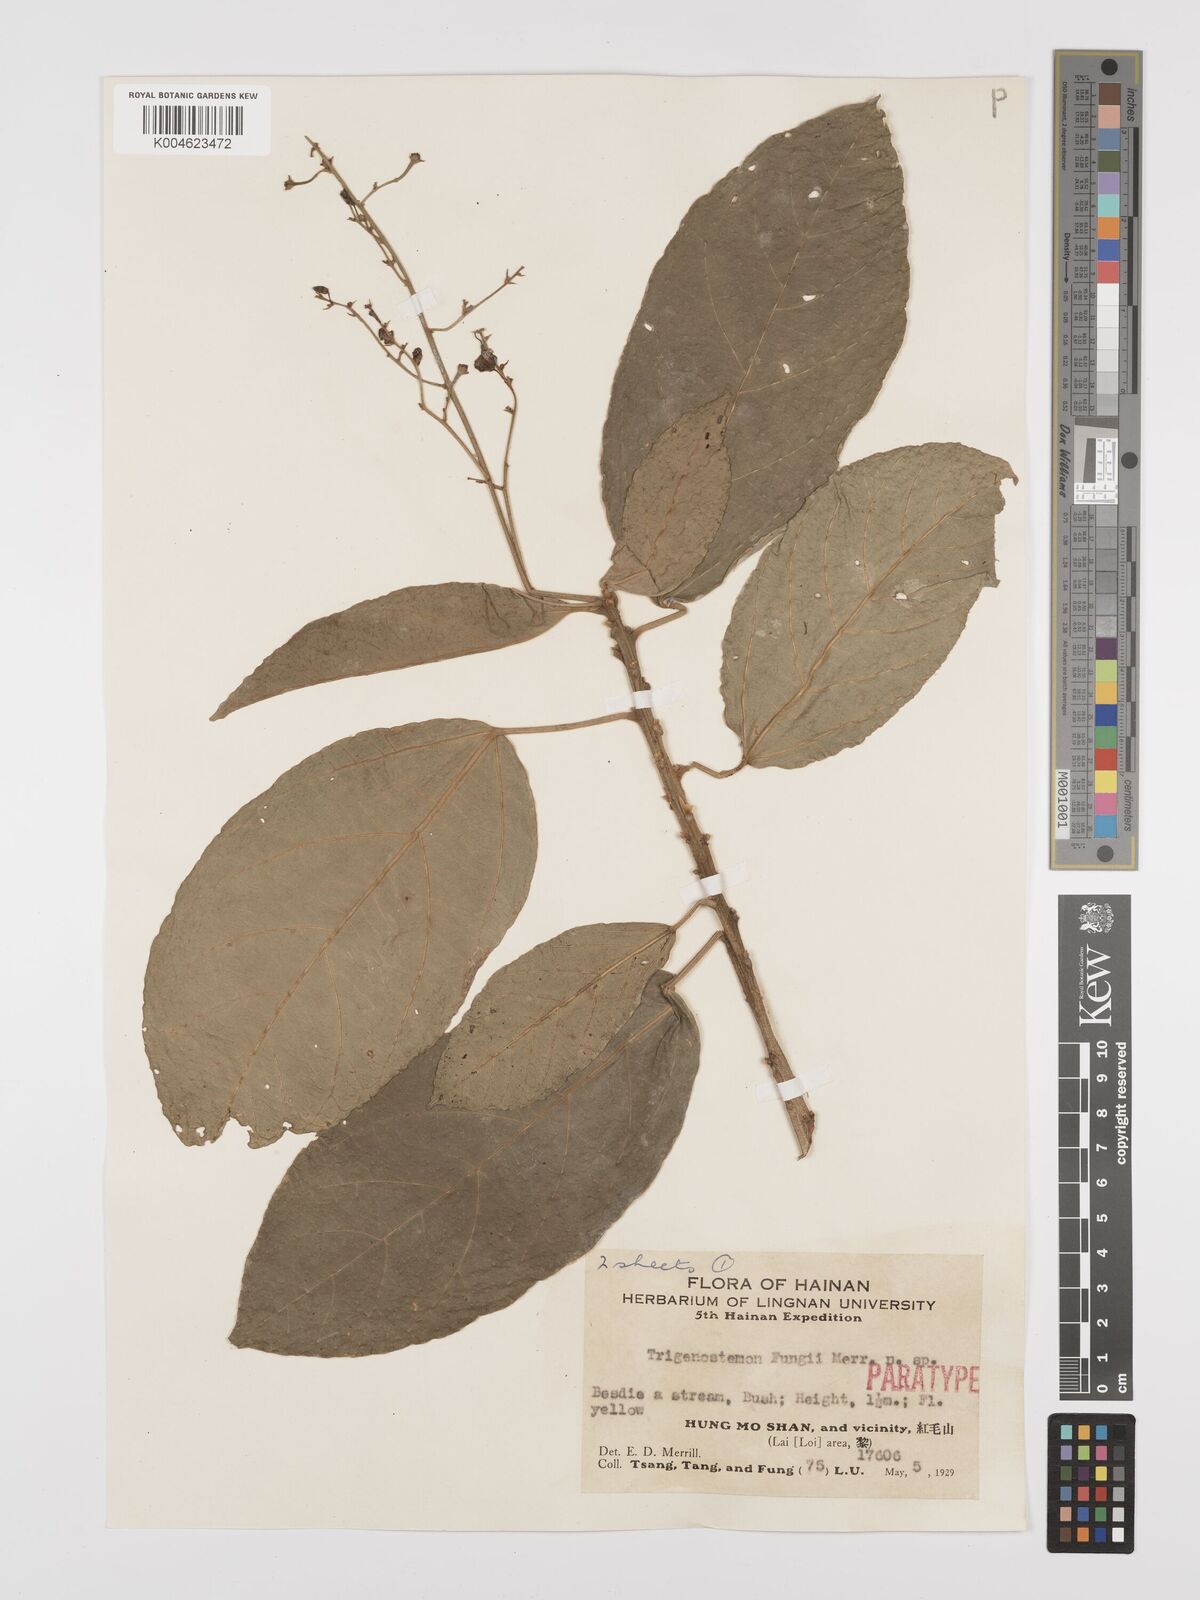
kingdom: Plantae
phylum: Tracheophyta
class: Magnoliopsida
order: Malpighiales
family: Euphorbiaceae
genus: Trigonostemon
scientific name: Trigonostemon viridissimus
